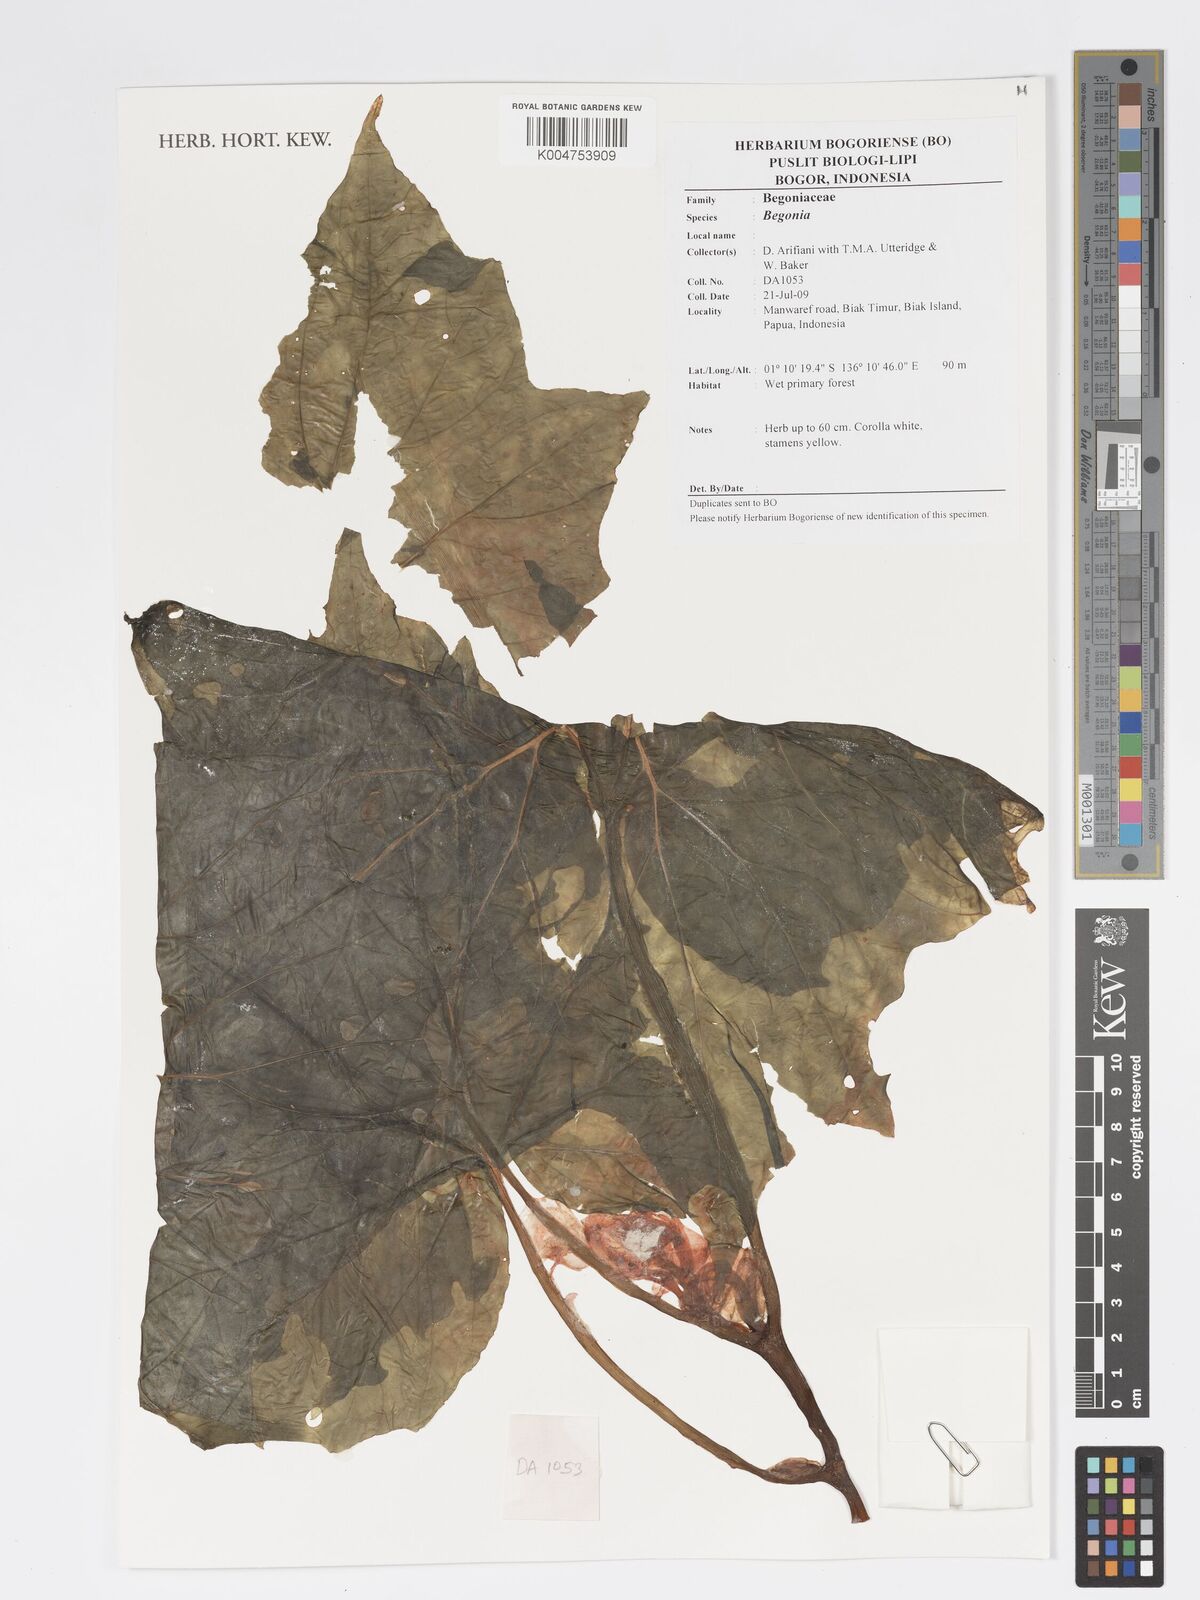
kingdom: Plantae
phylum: Tracheophyta
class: Magnoliopsida
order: Cucurbitales
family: Begoniaceae
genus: Begonia
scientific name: Begonia fruticella
